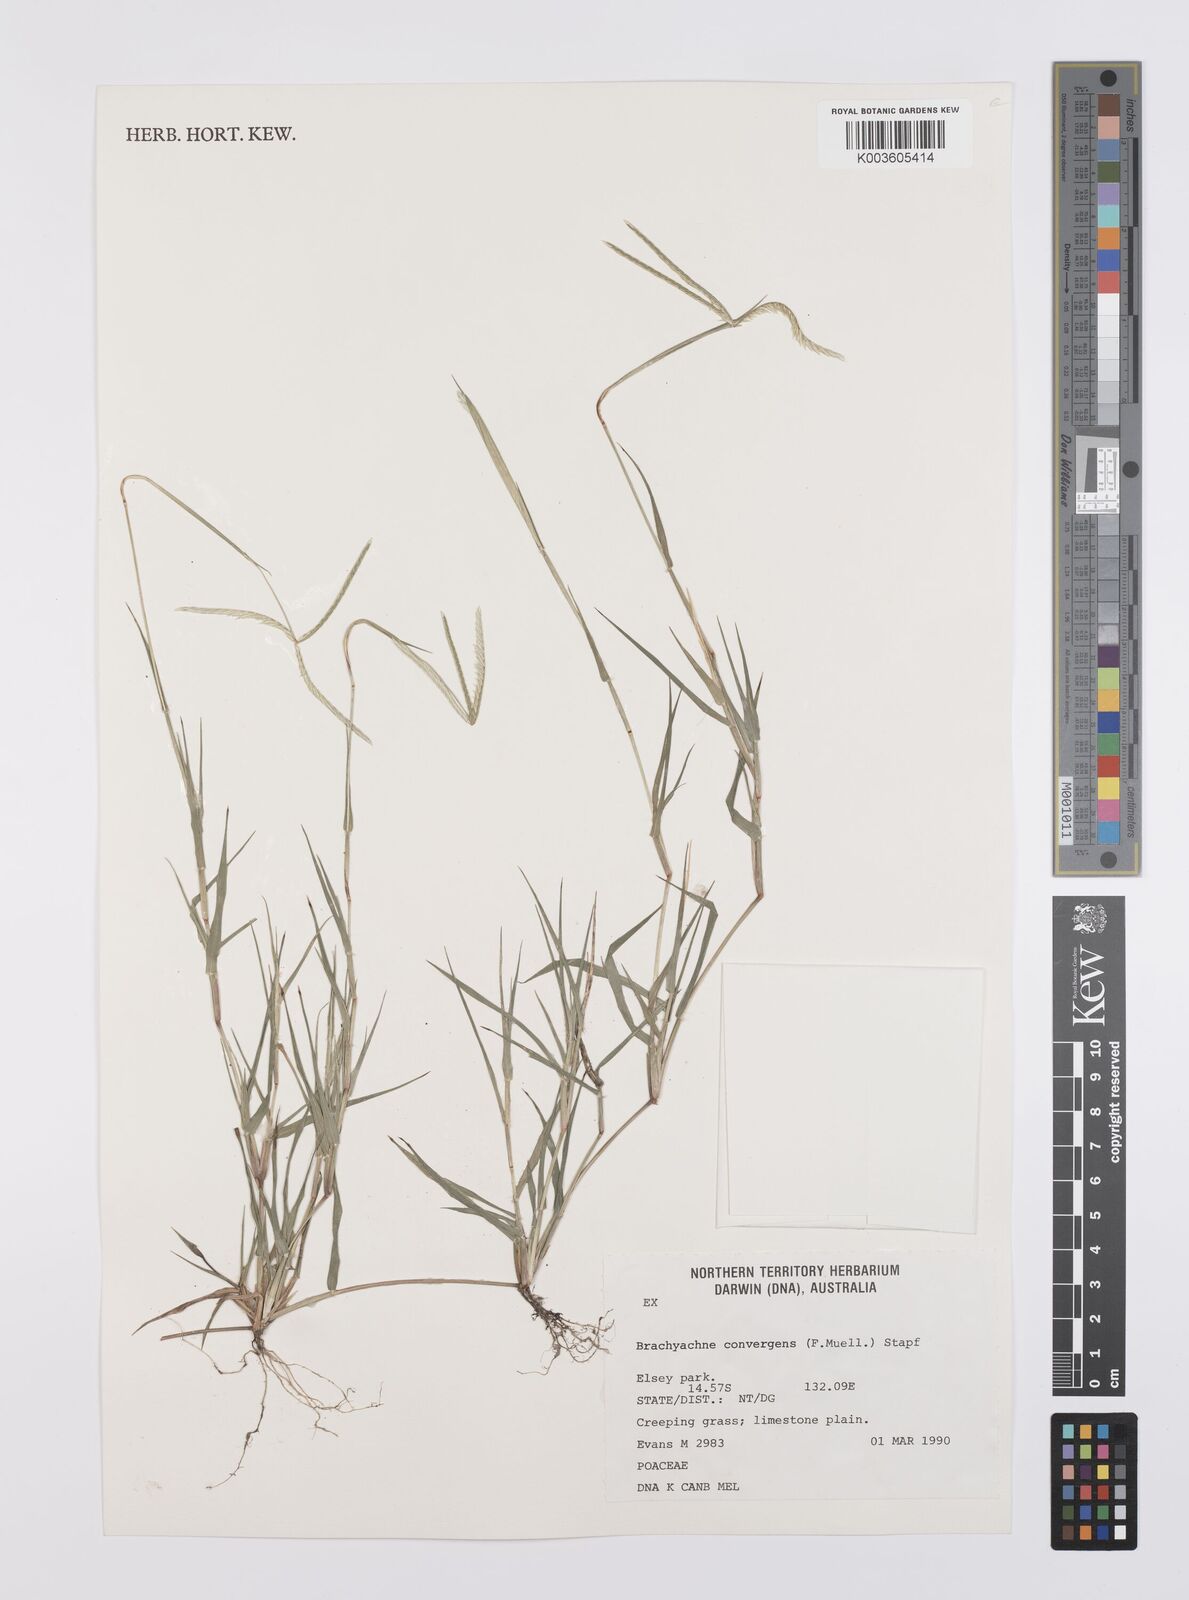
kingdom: Plantae
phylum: Tracheophyta
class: Liliopsida
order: Poales
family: Poaceae
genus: Cynodon
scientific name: Cynodon convergens
